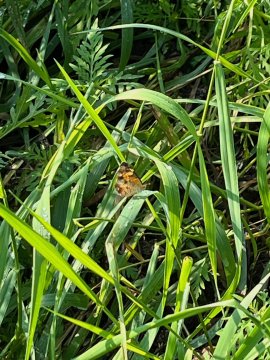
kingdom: Animalia
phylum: Arthropoda
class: Insecta
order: Lepidoptera
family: Nymphalidae
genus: Phyciodes
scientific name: Phyciodes
